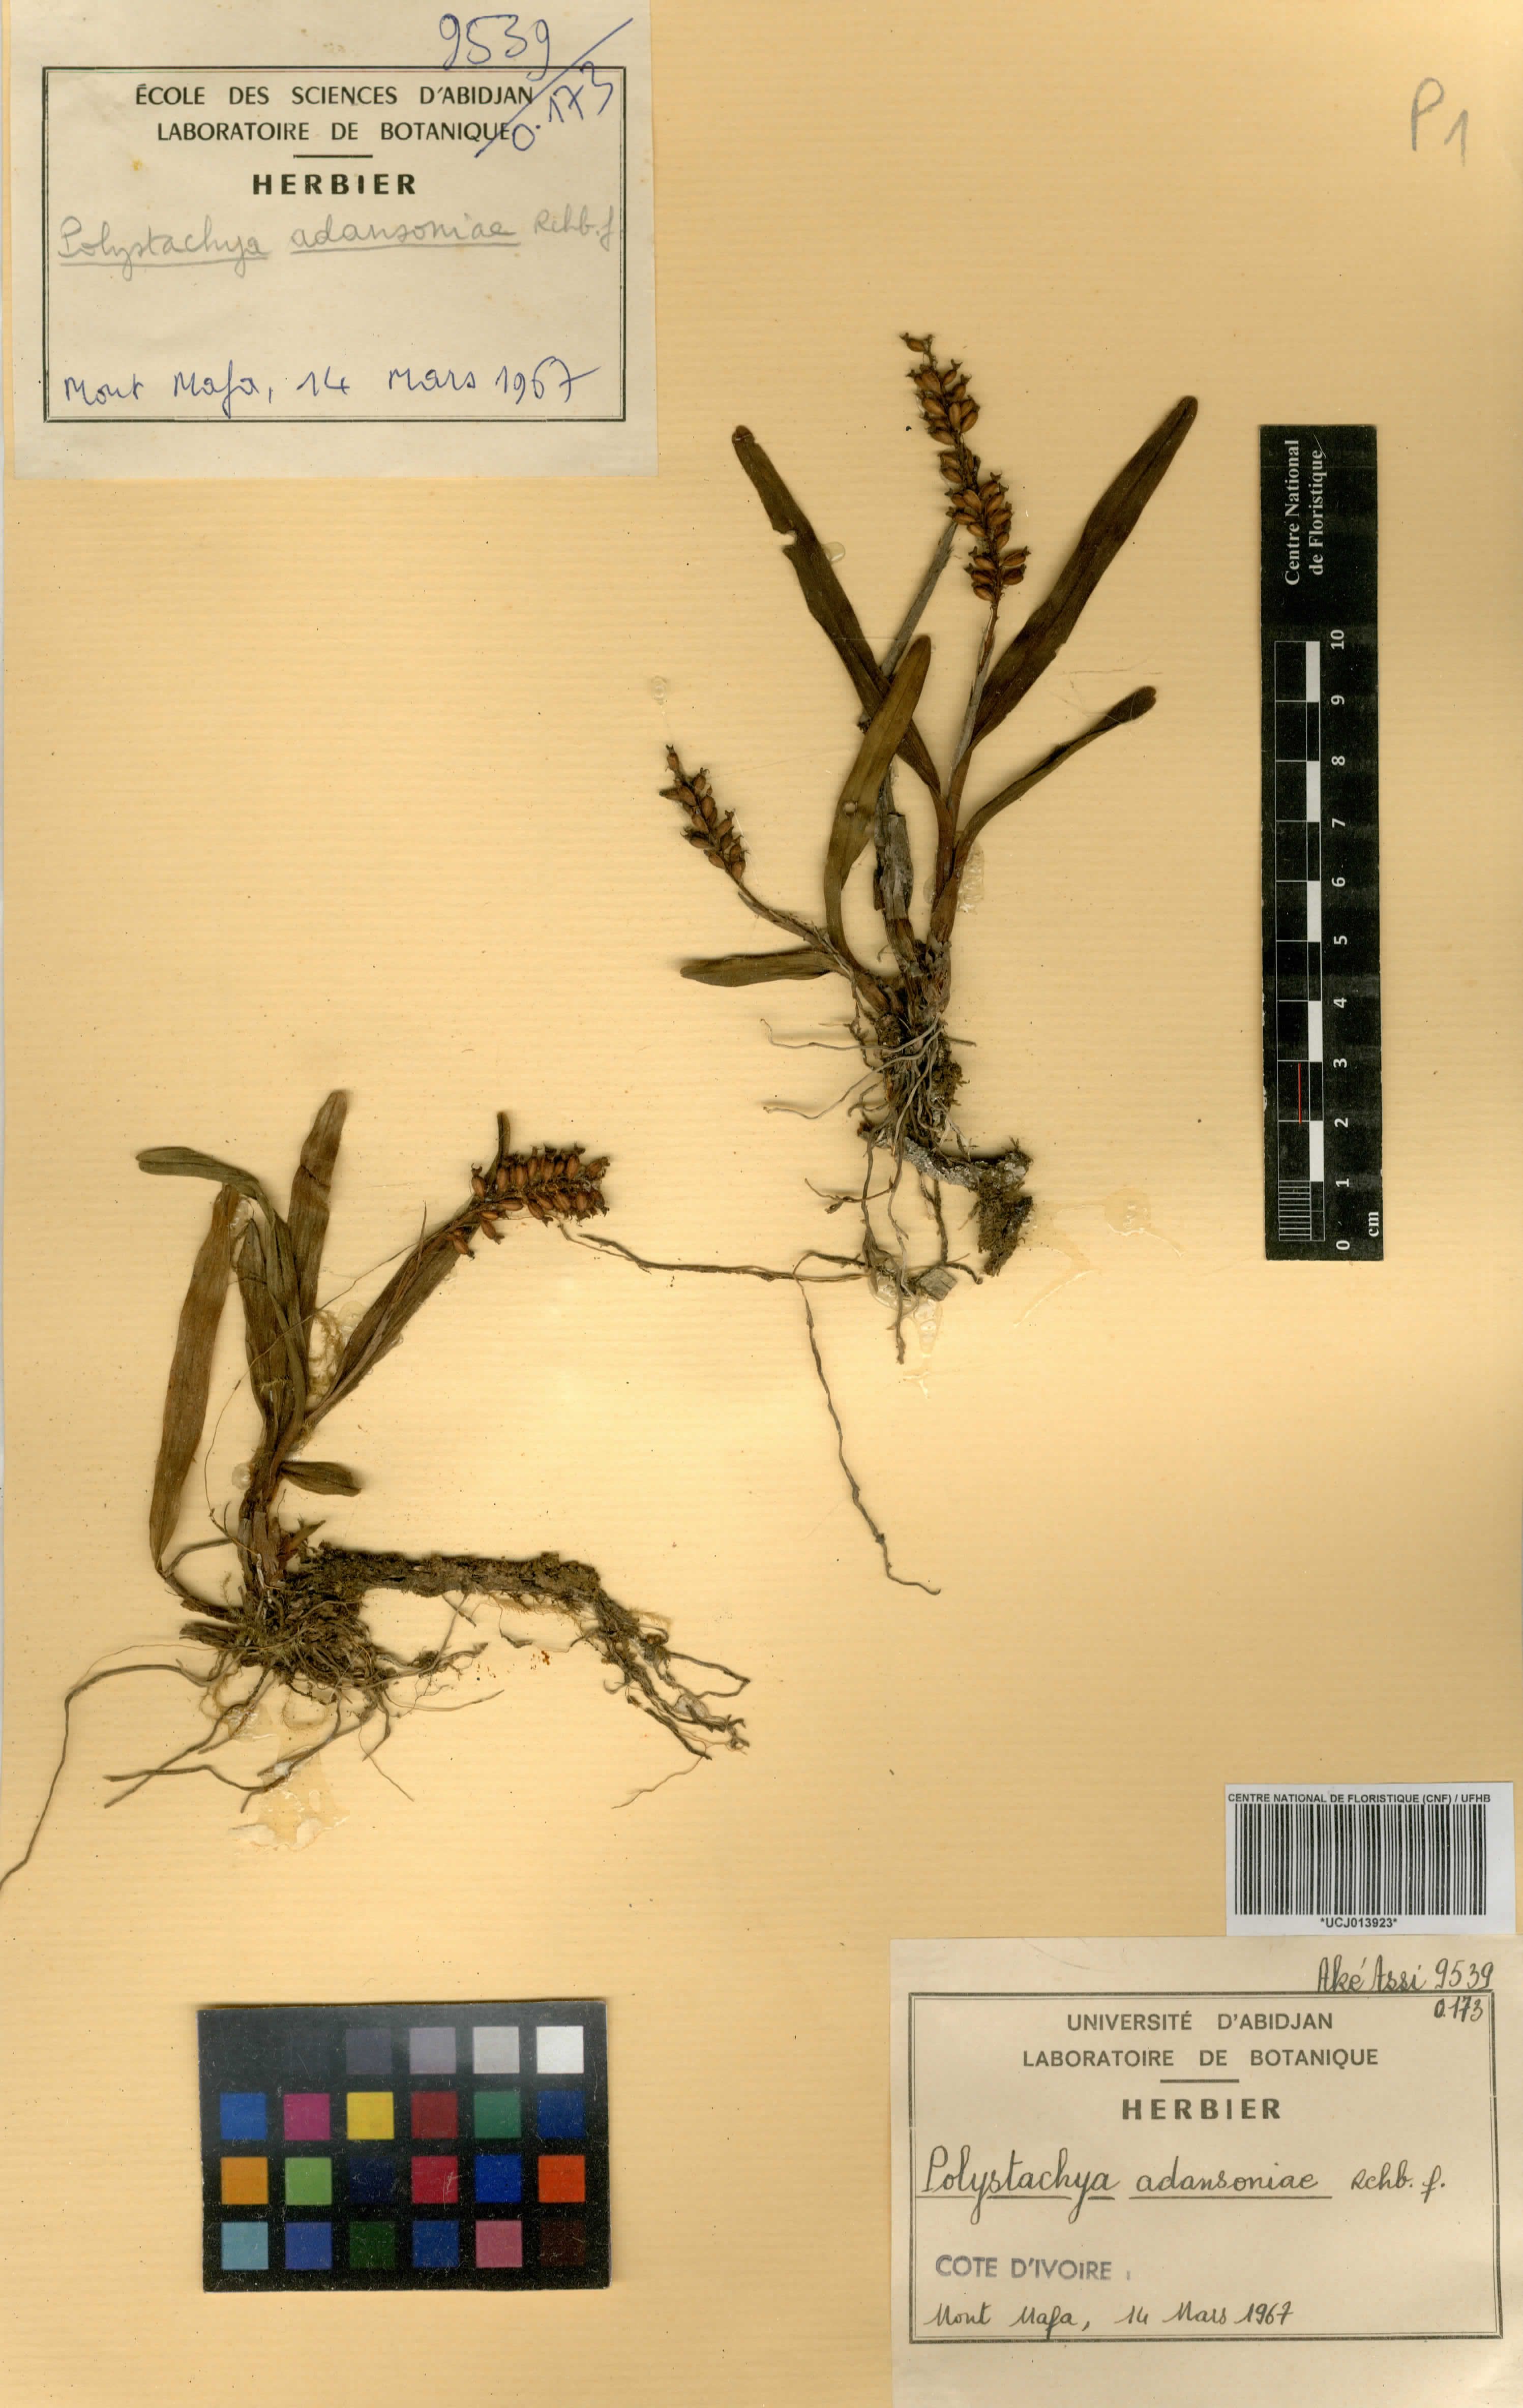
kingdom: Plantae
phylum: Tracheophyta
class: Liliopsida
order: Asparagales
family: Orchidaceae
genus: Polystachya
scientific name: Polystachya adansoniae
